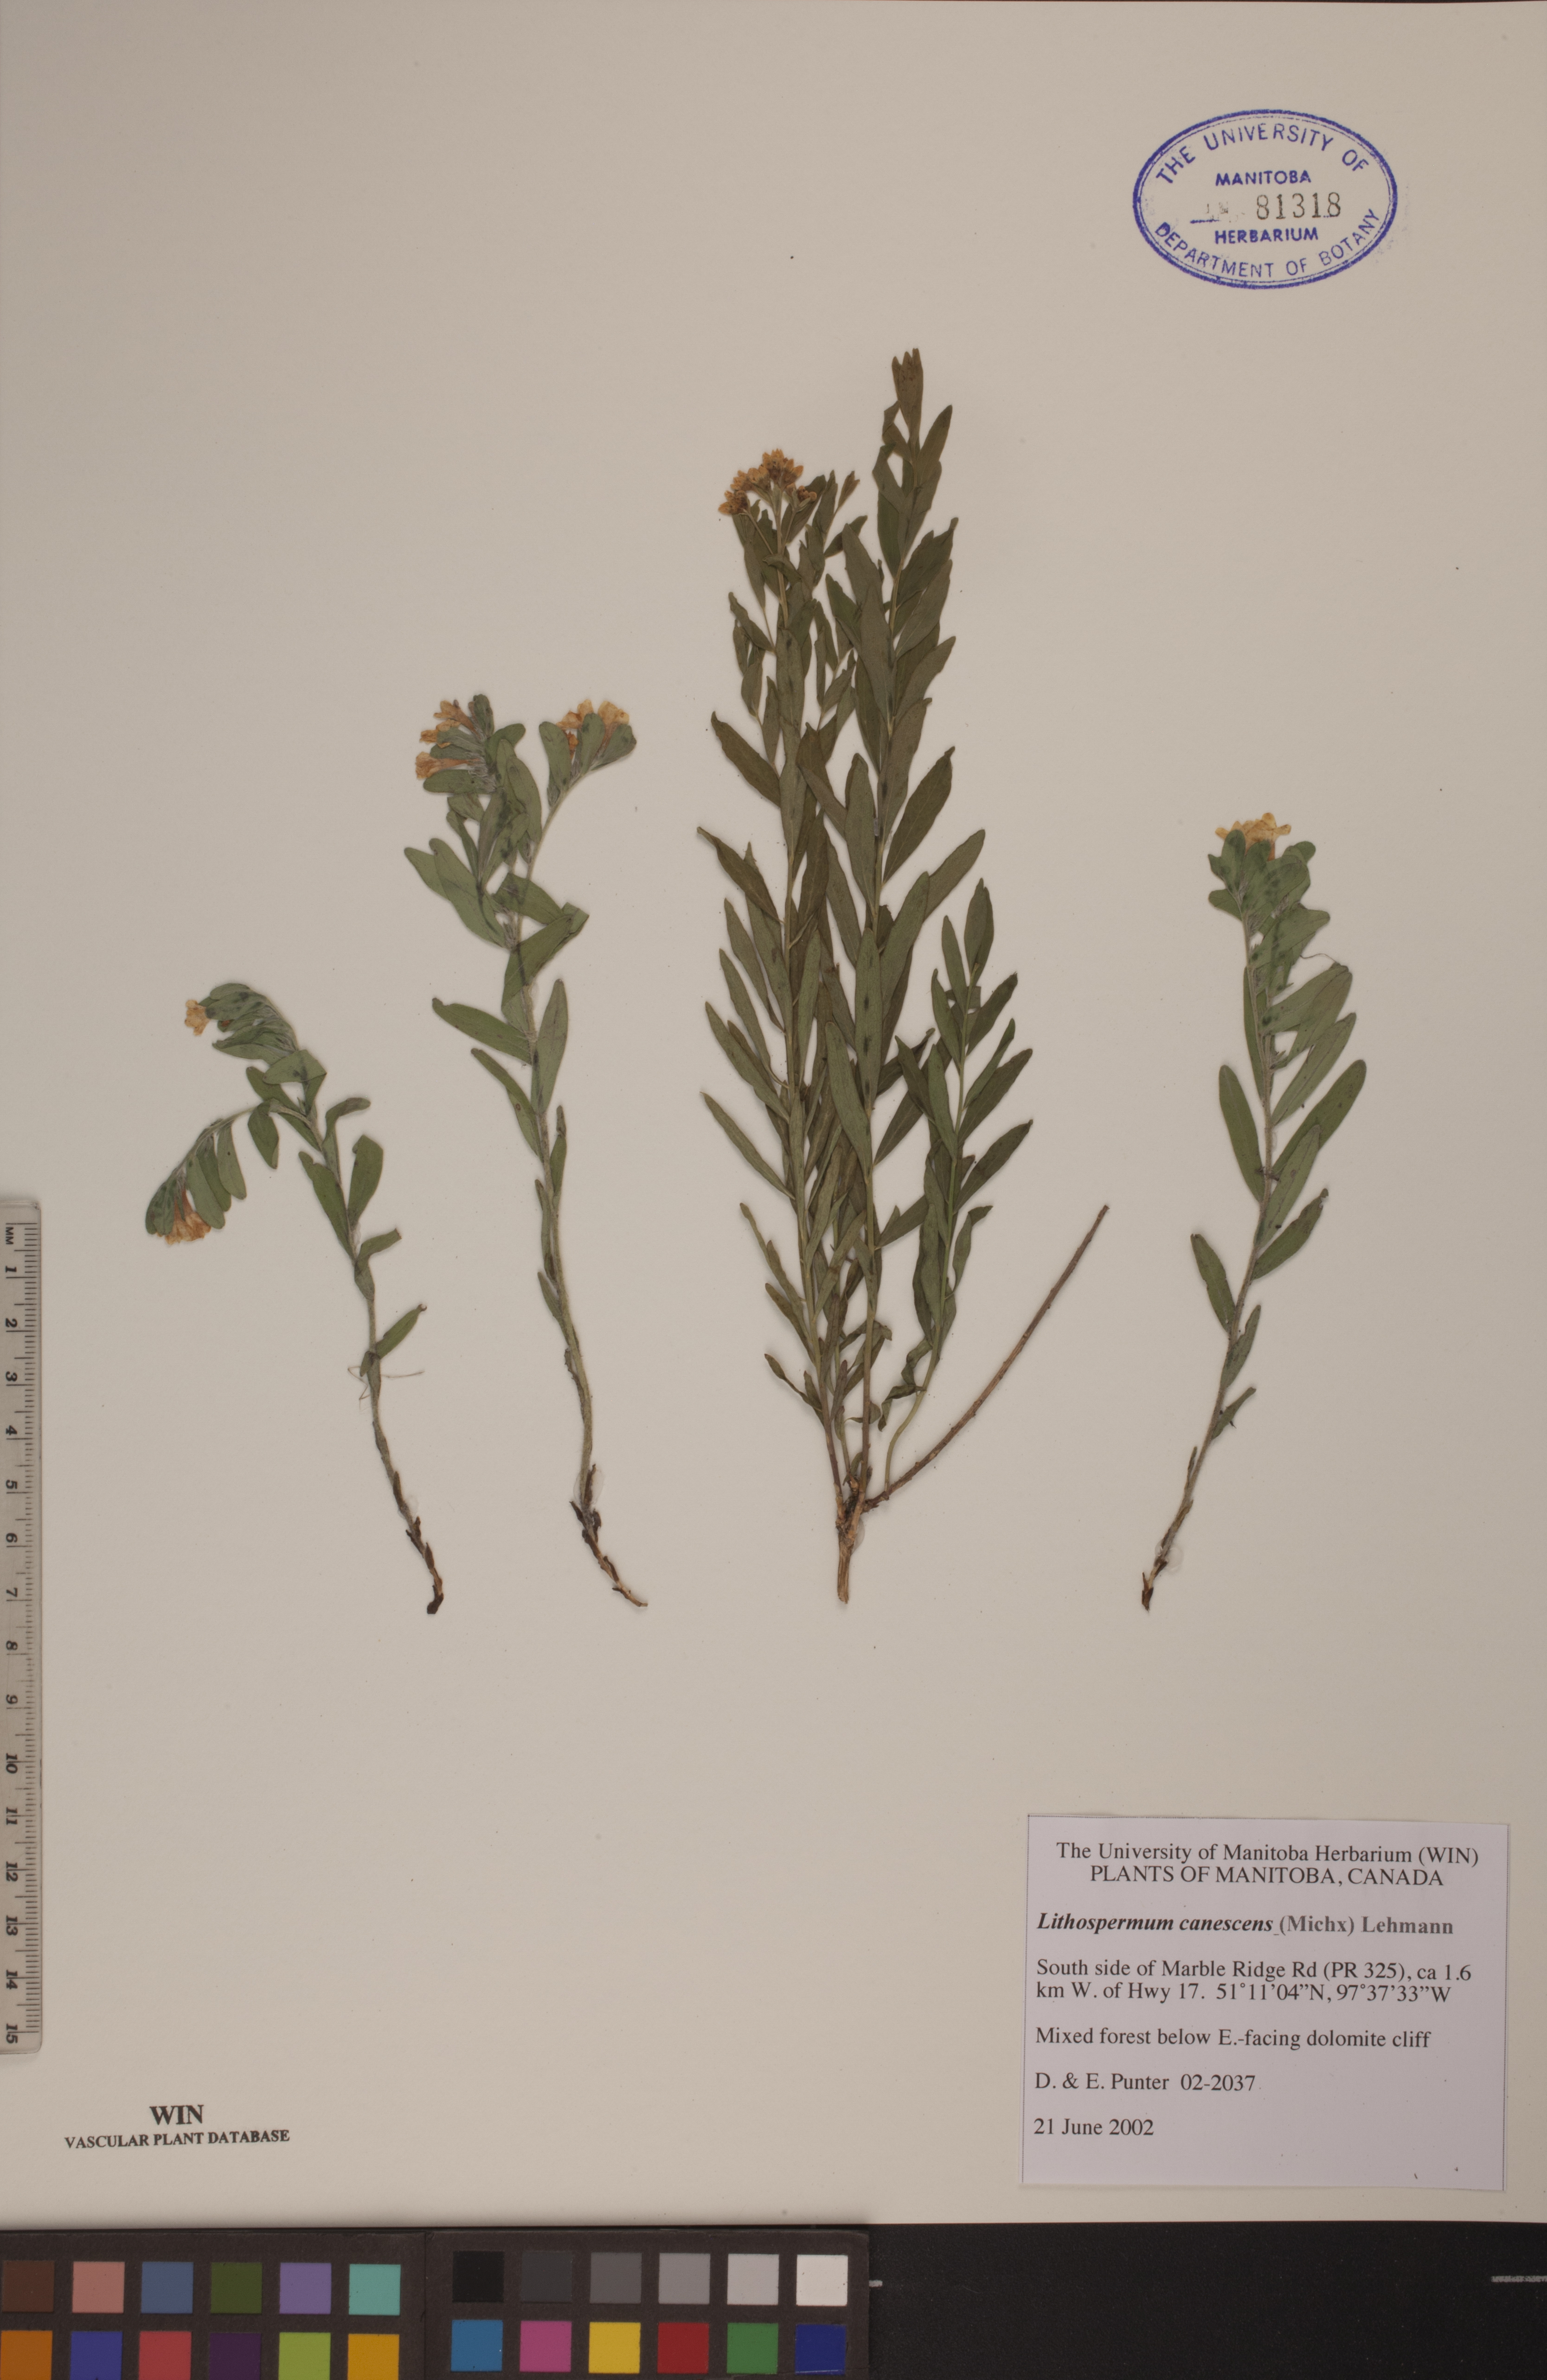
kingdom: Plantae
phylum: Tracheophyta
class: Magnoliopsida
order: Boraginales
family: Boraginaceae
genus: Lithospermum
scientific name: Lithospermum canescens
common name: Hoary puccoon
